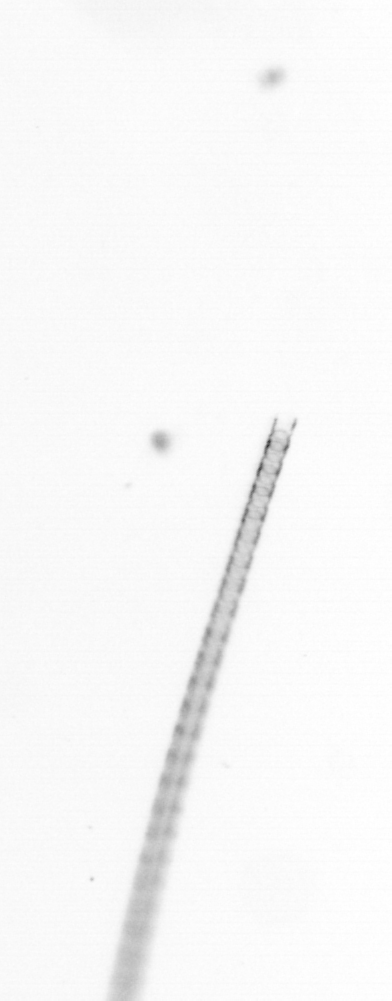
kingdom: Chromista
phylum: Ochrophyta
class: Bacillariophyceae
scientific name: Bacillariophyceae
